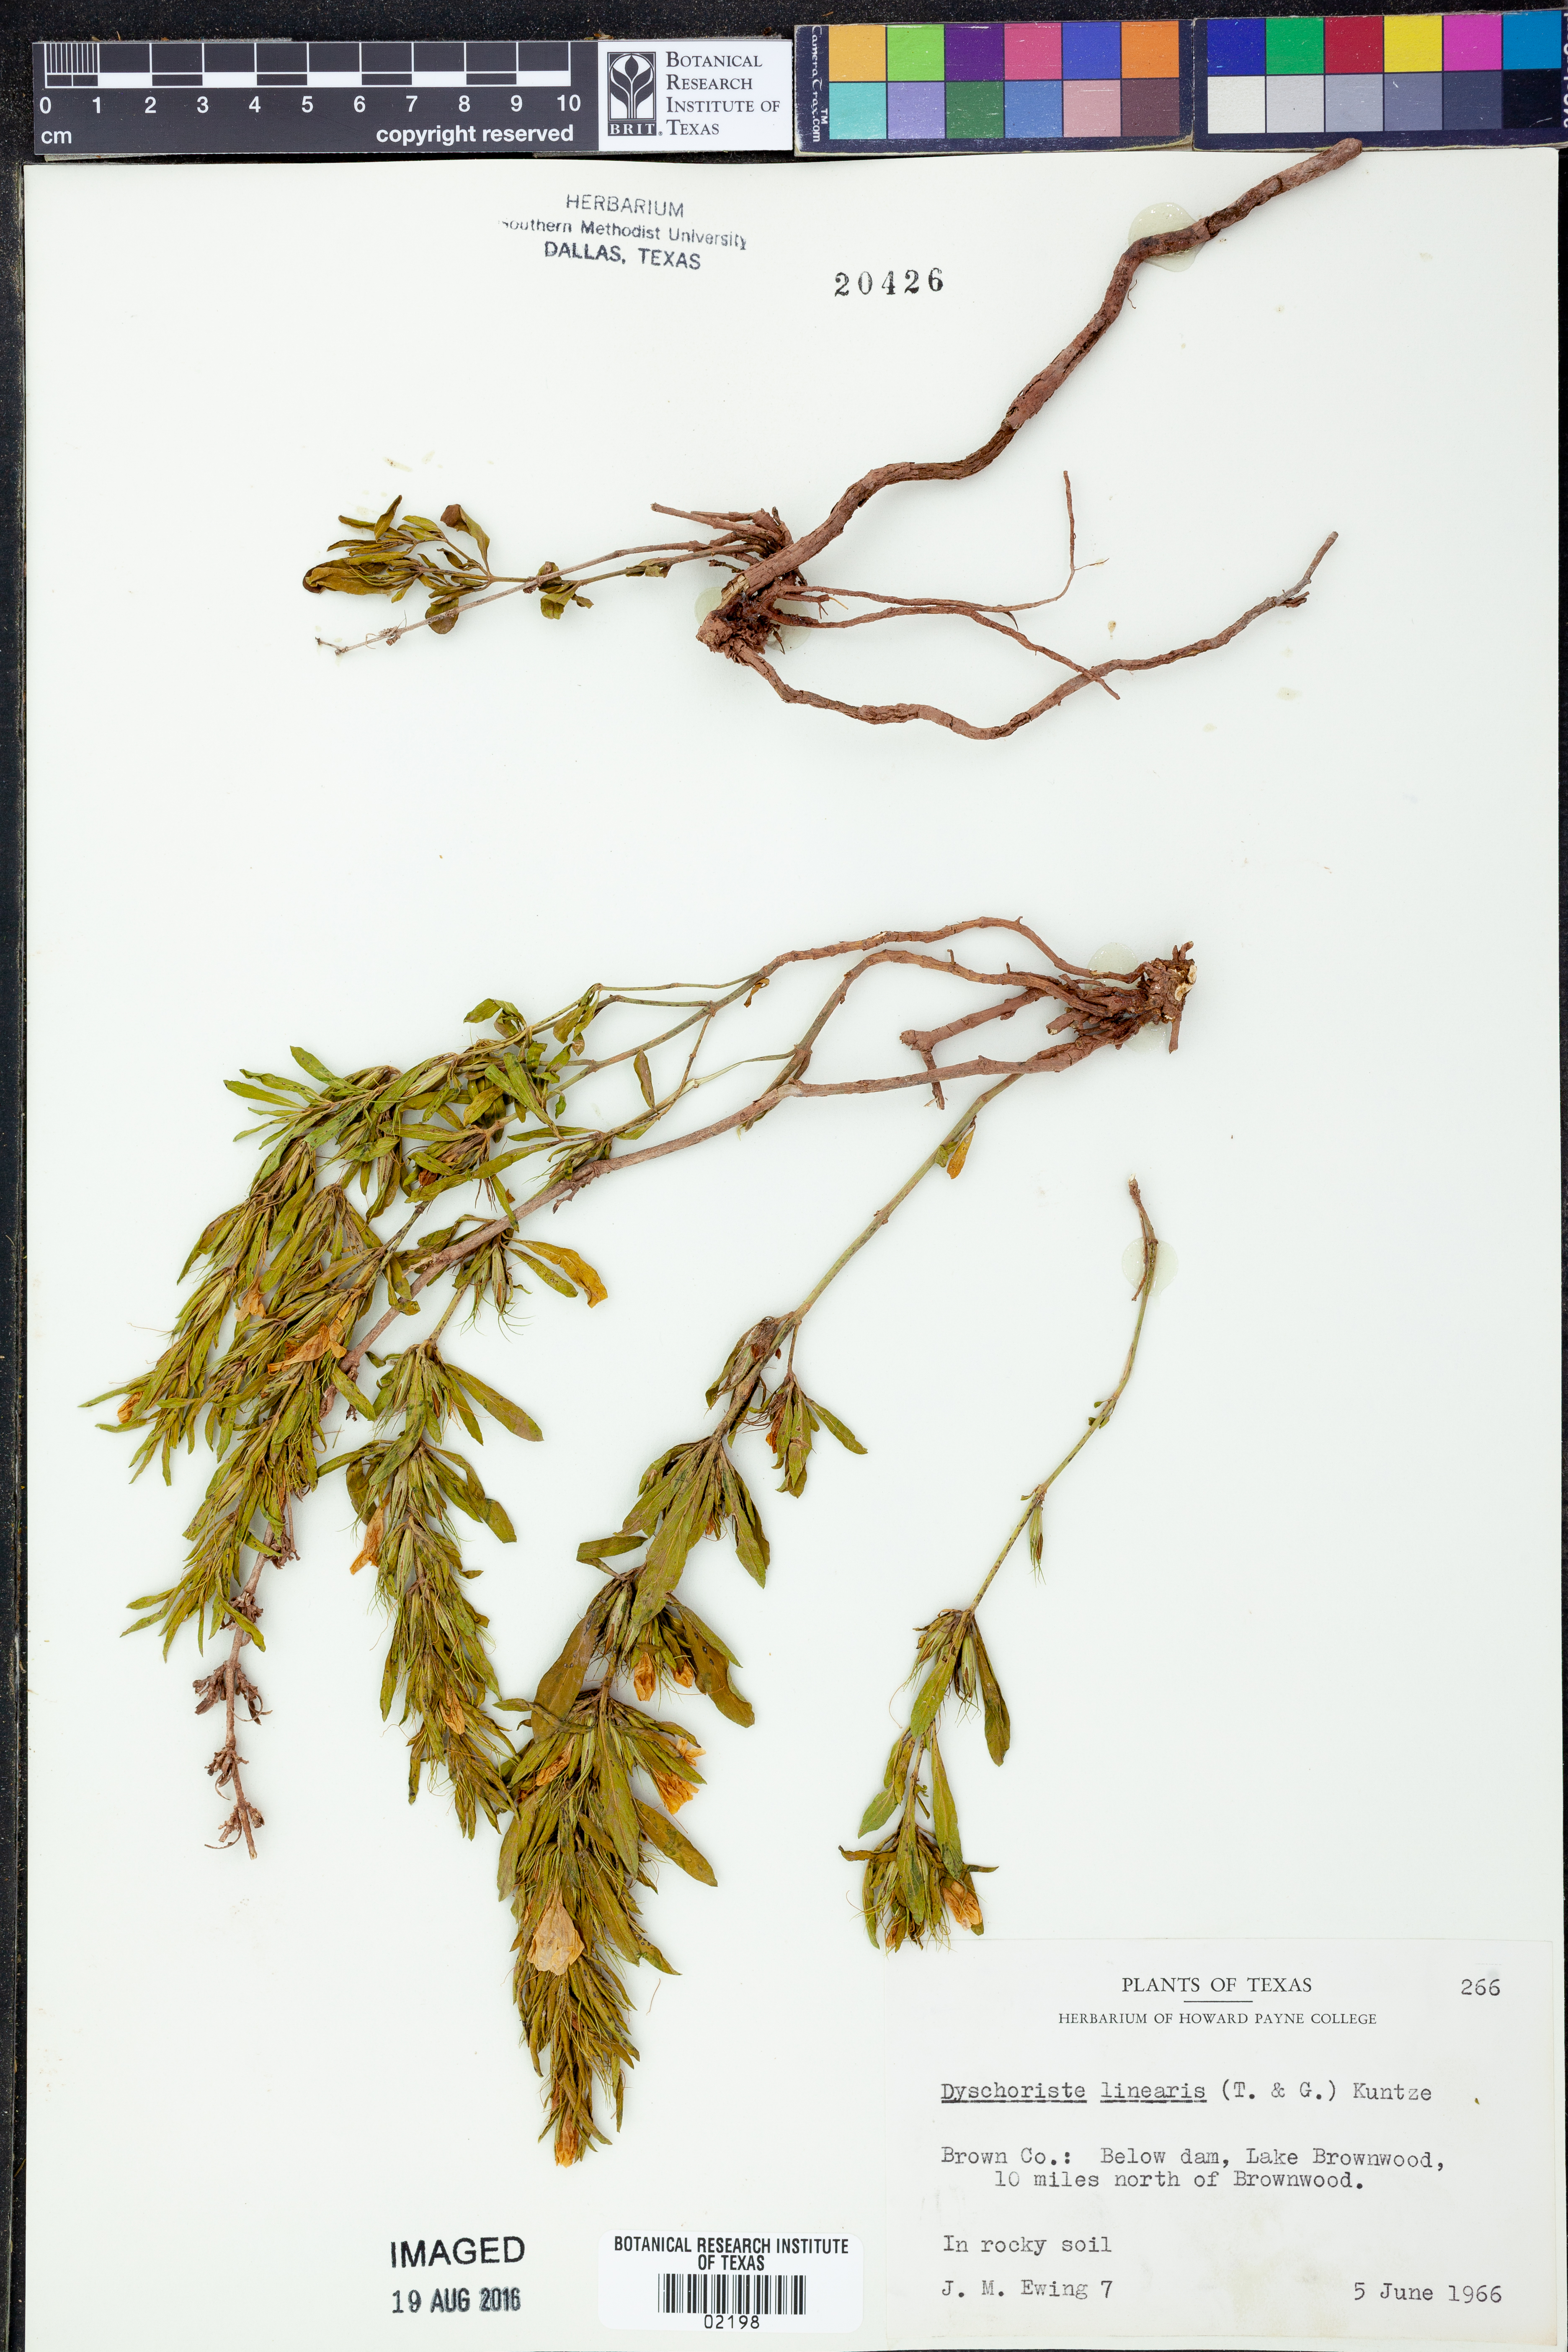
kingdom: Plantae
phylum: Tracheophyta
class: Magnoliopsida
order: Lamiales
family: Acanthaceae
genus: Dyschoriste
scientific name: Dyschoriste linearis
